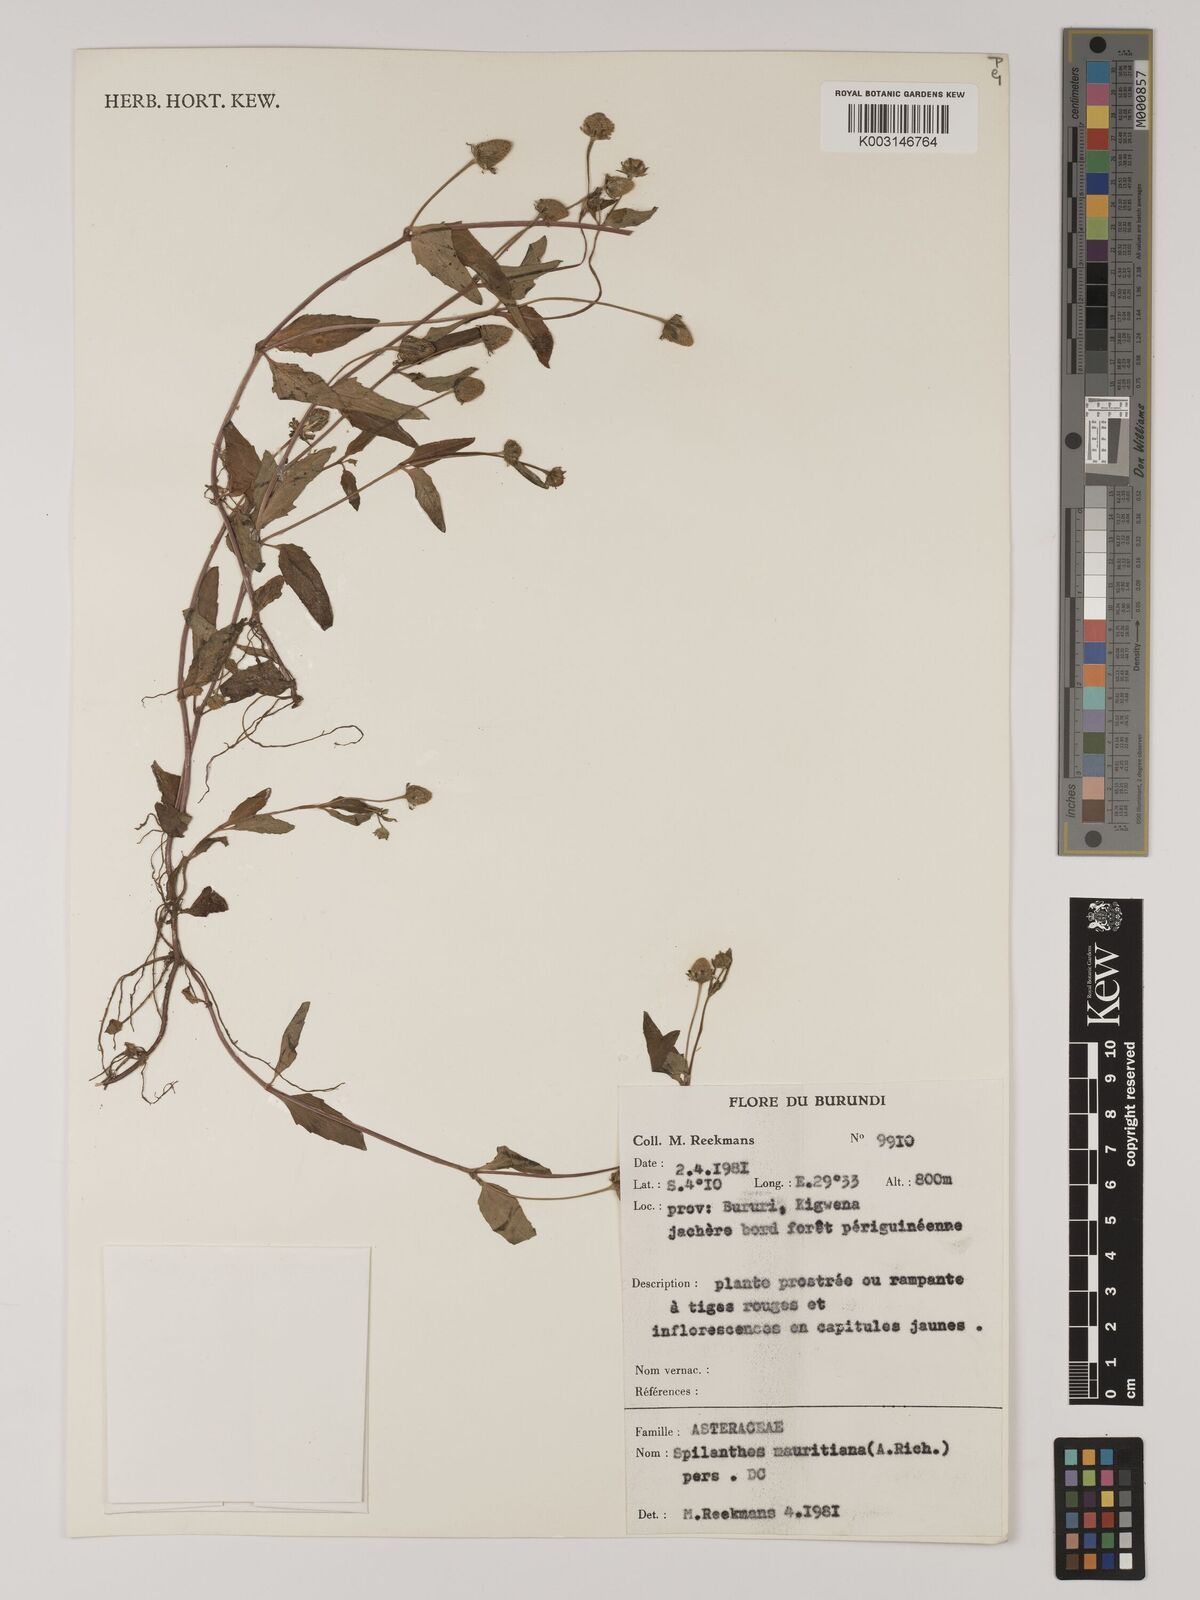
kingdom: Plantae
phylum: Tracheophyta
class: Magnoliopsida
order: Asterales
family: Asteraceae
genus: Blainvillea
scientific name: Blainvillea acmella
